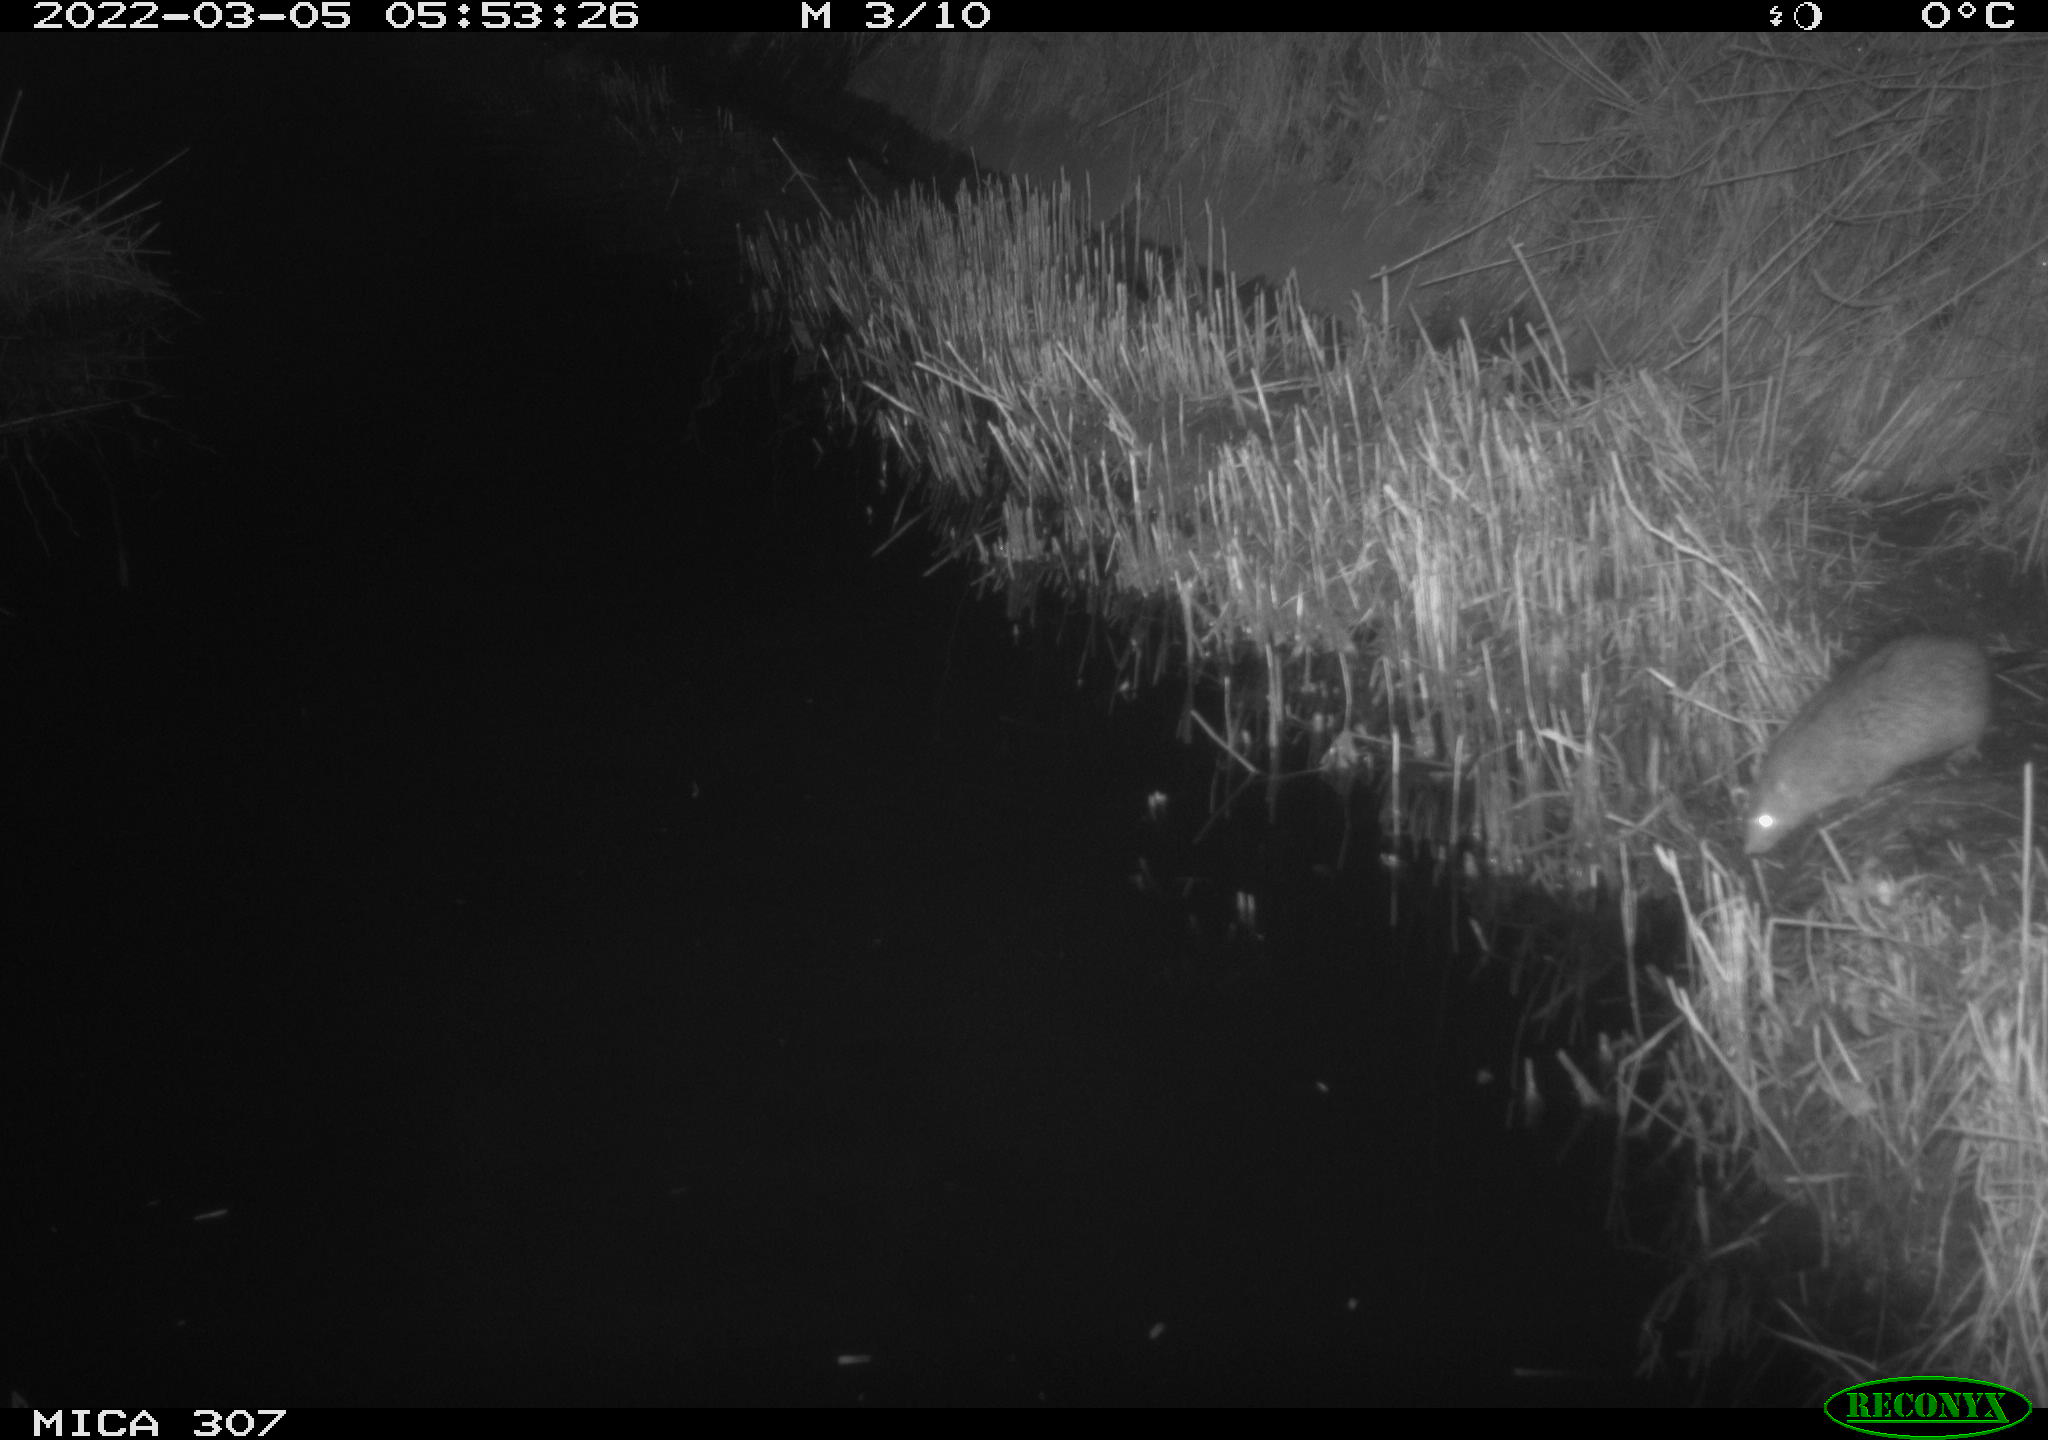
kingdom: Animalia
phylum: Chordata
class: Mammalia
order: Rodentia
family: Muridae
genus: Rattus
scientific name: Rattus norvegicus
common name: Brown rat
